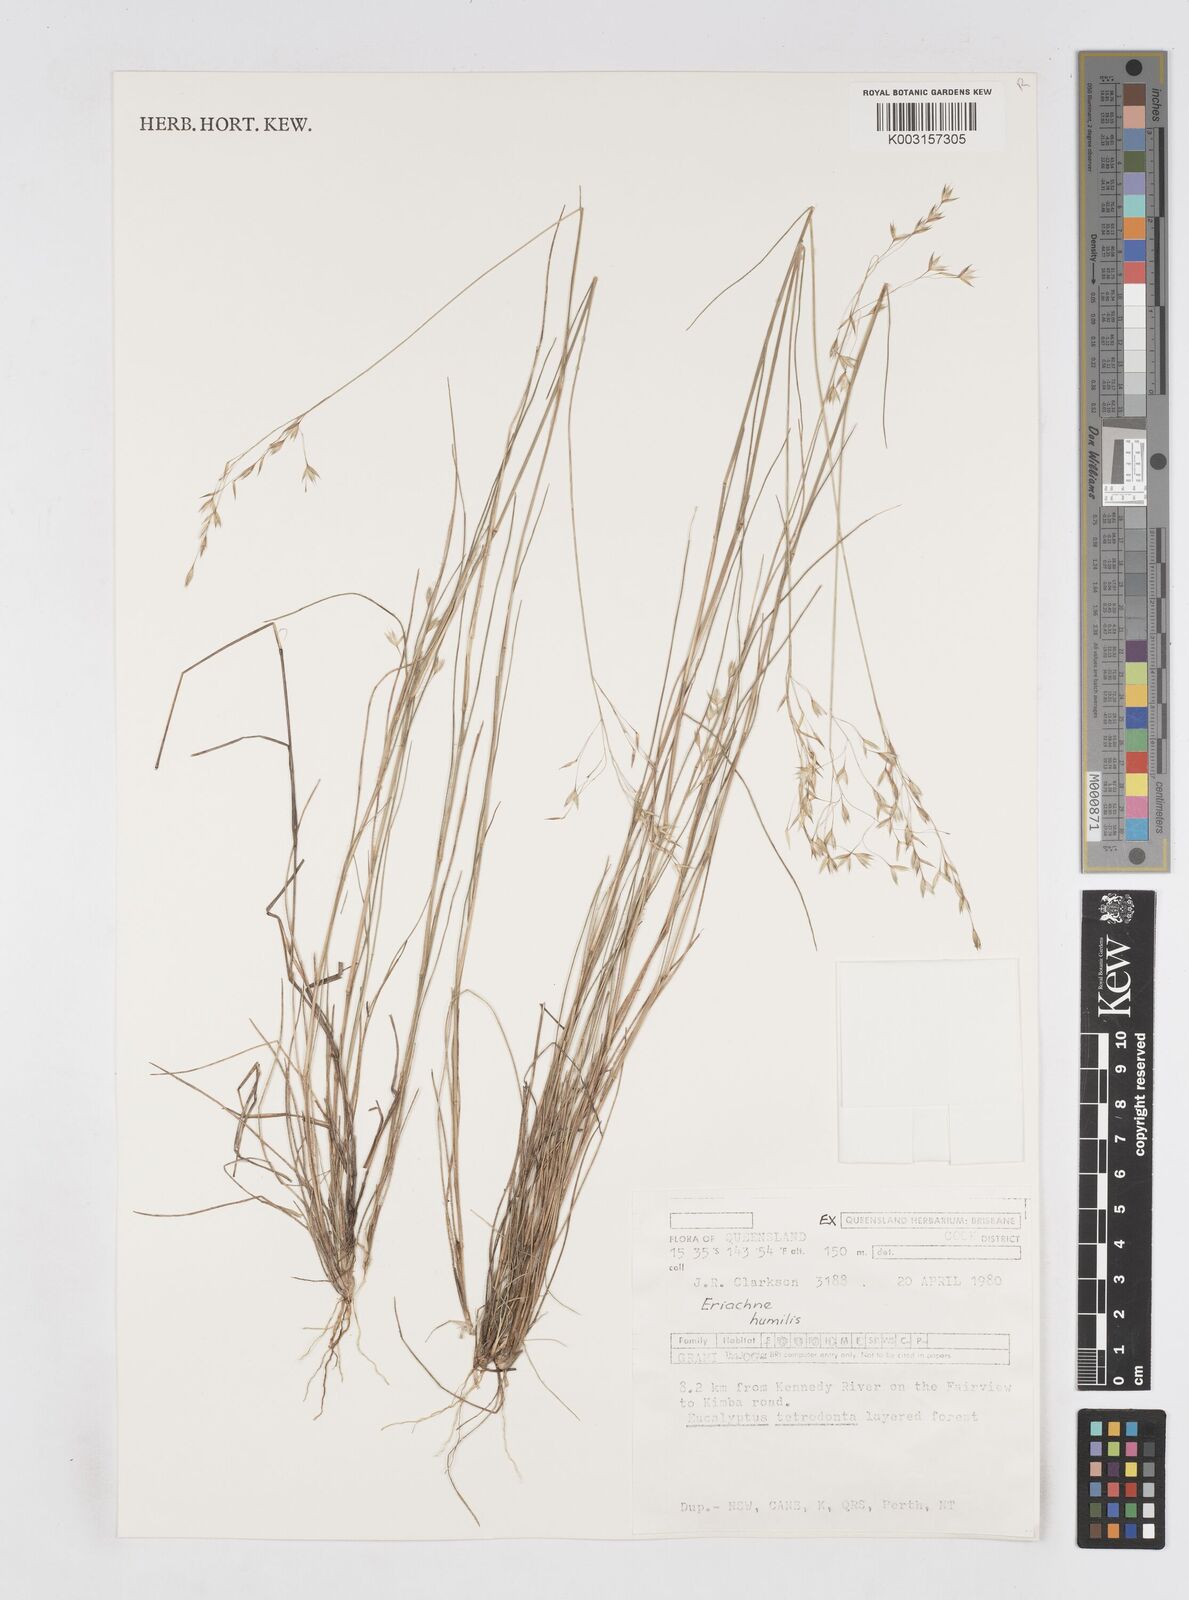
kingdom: Plantae
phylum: Tracheophyta
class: Liliopsida
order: Poales
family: Poaceae
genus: Eriachne
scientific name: Eriachne humilis
